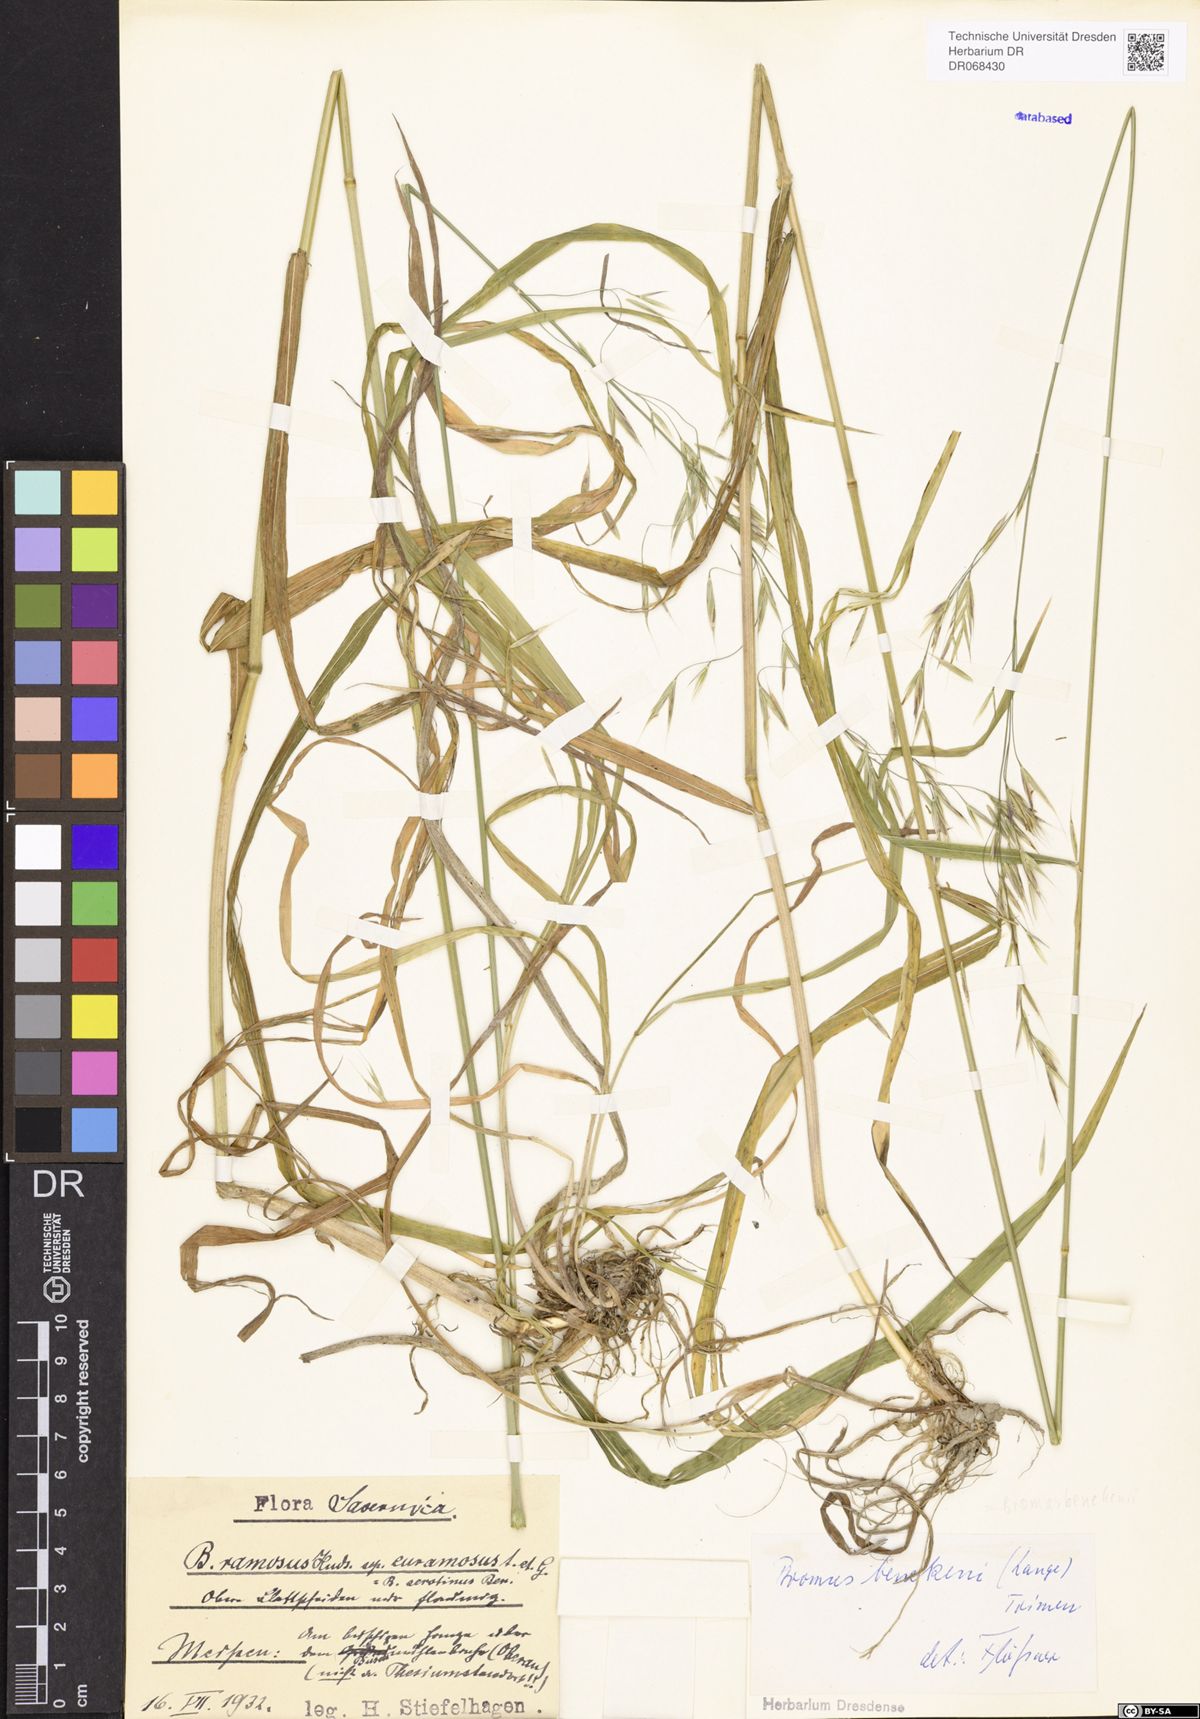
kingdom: Plantae
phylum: Tracheophyta
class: Liliopsida
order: Poales
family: Poaceae
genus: Bromus
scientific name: Bromus benekenii
